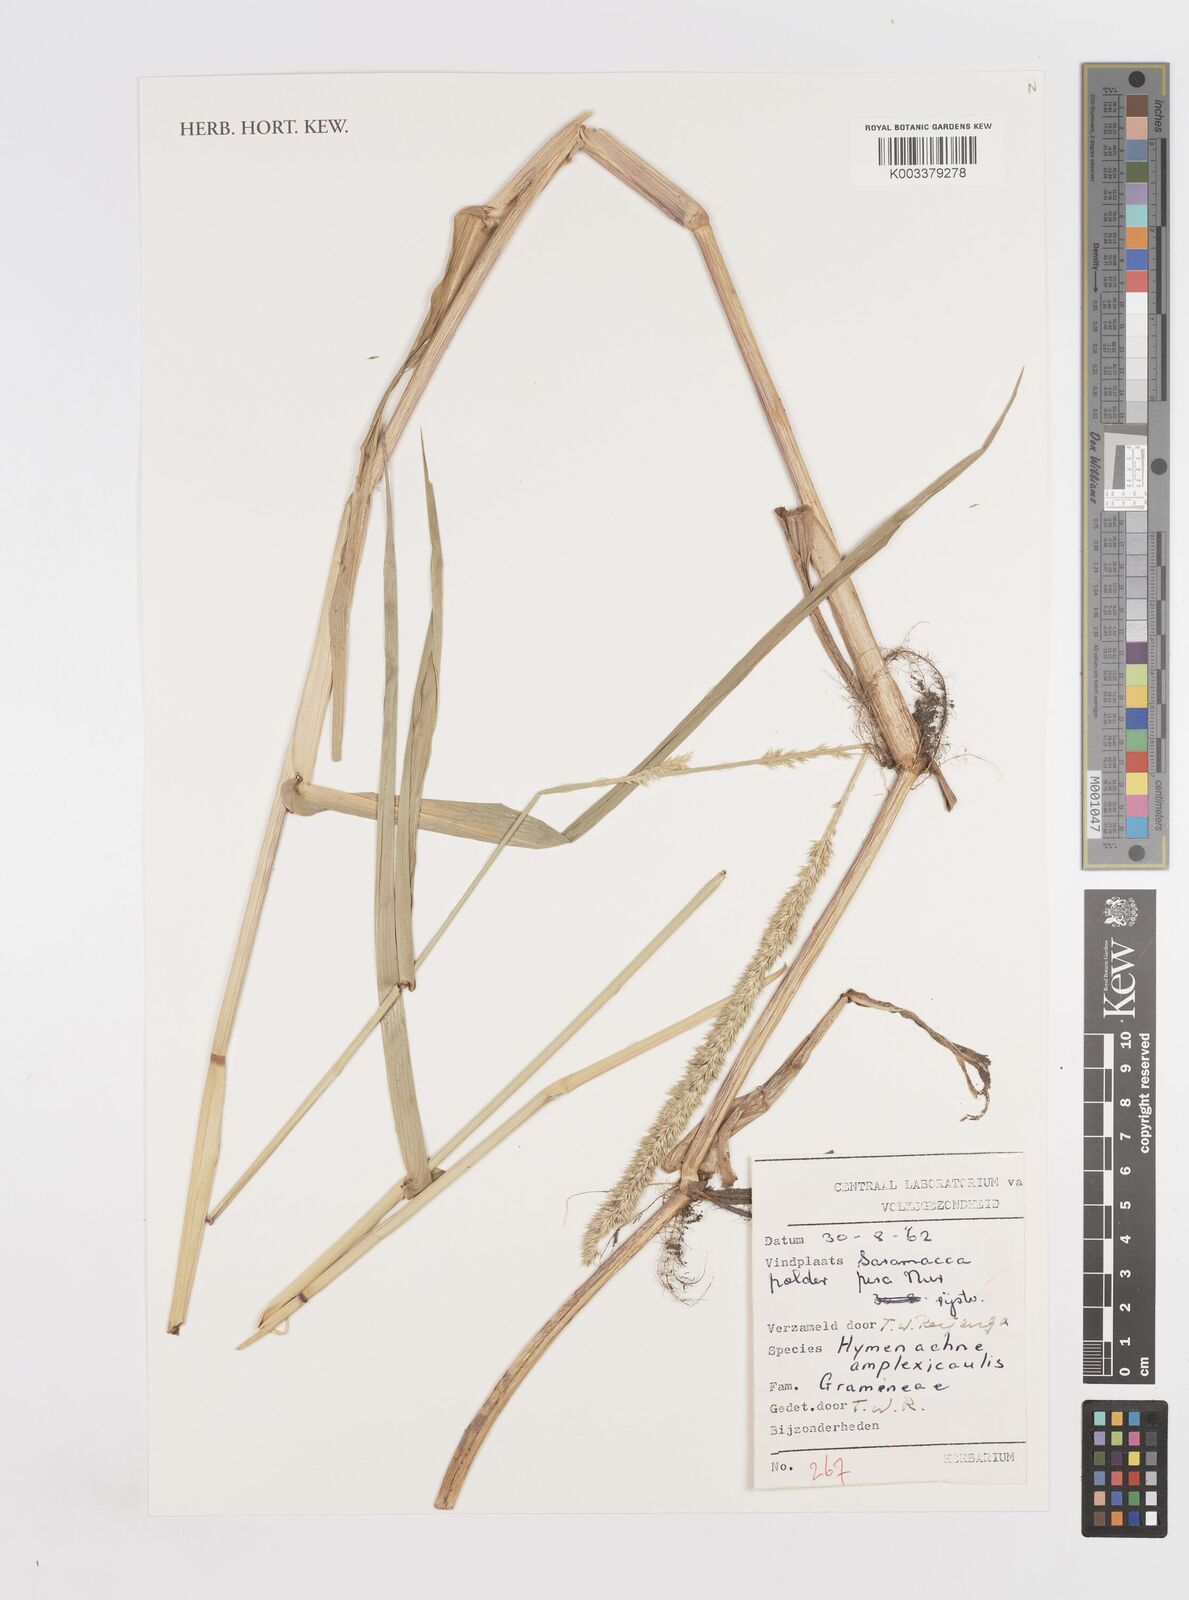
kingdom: Plantae
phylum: Tracheophyta
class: Liliopsida
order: Poales
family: Poaceae
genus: Hymenachne
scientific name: Hymenachne amplexicaulis
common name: Olive hymenachne
